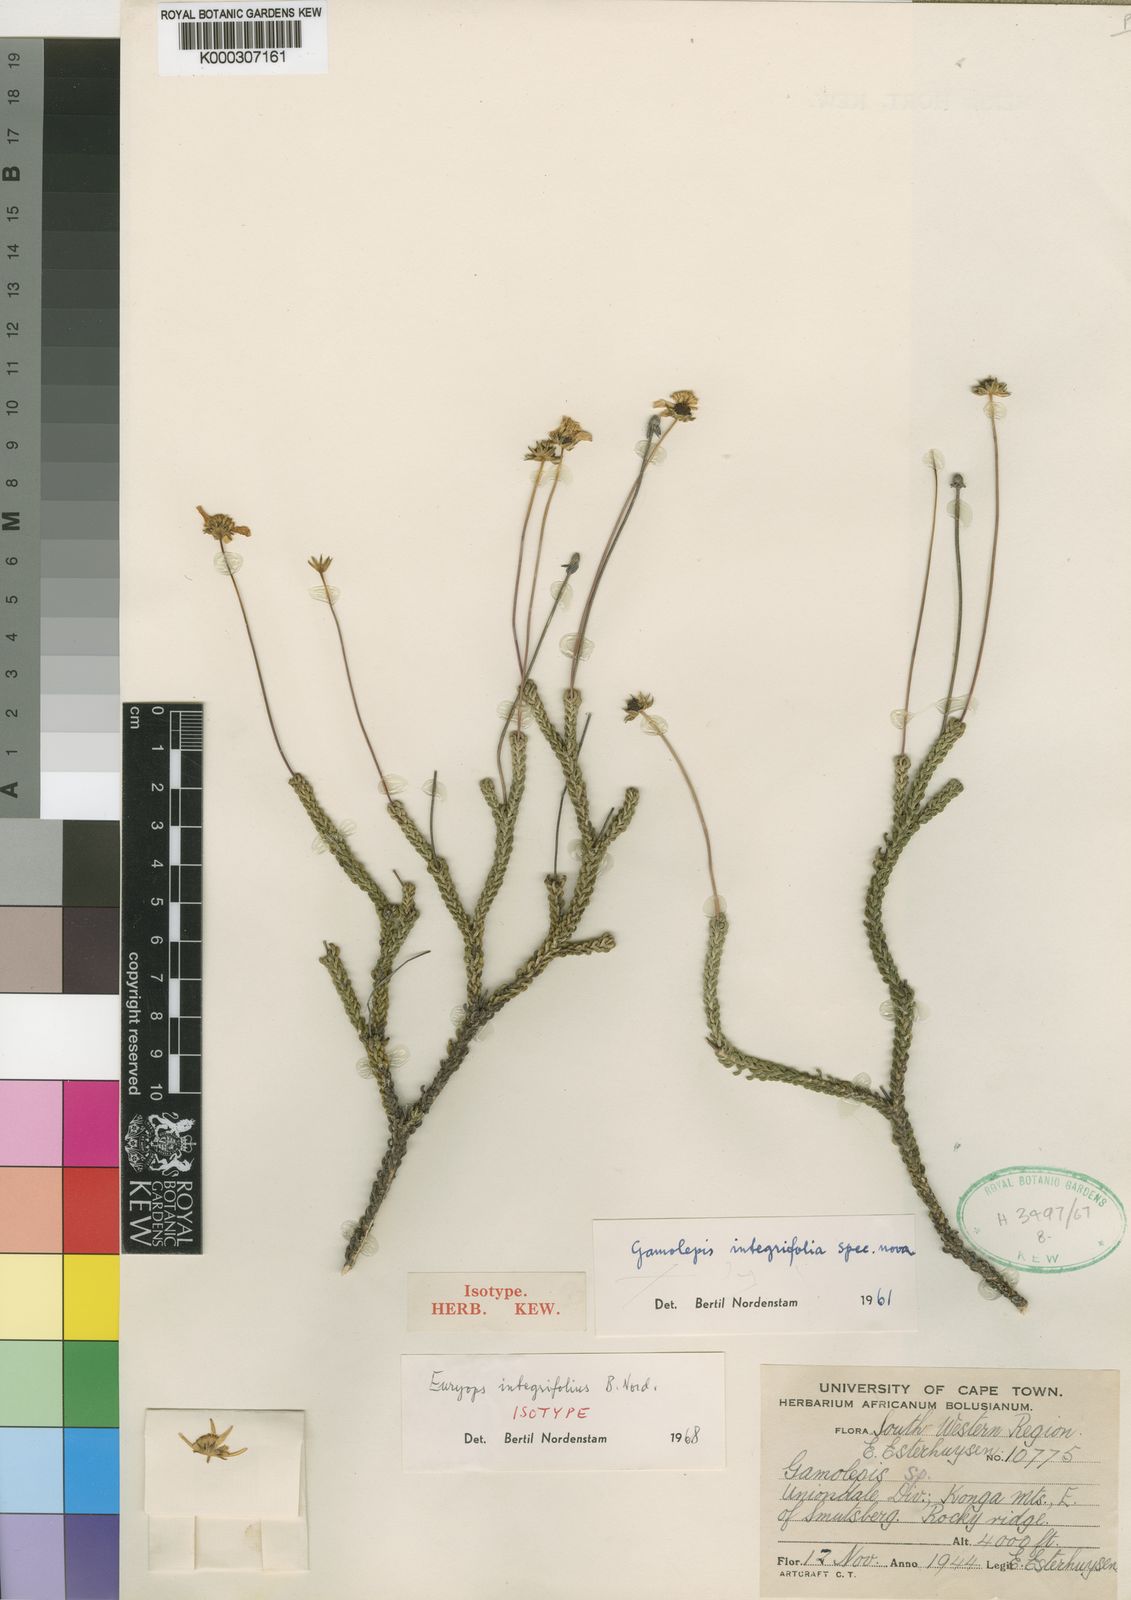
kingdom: Plantae
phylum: Tracheophyta
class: Magnoliopsida
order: Asterales
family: Asteraceae
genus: Euryops
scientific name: Euryops integrifolius
